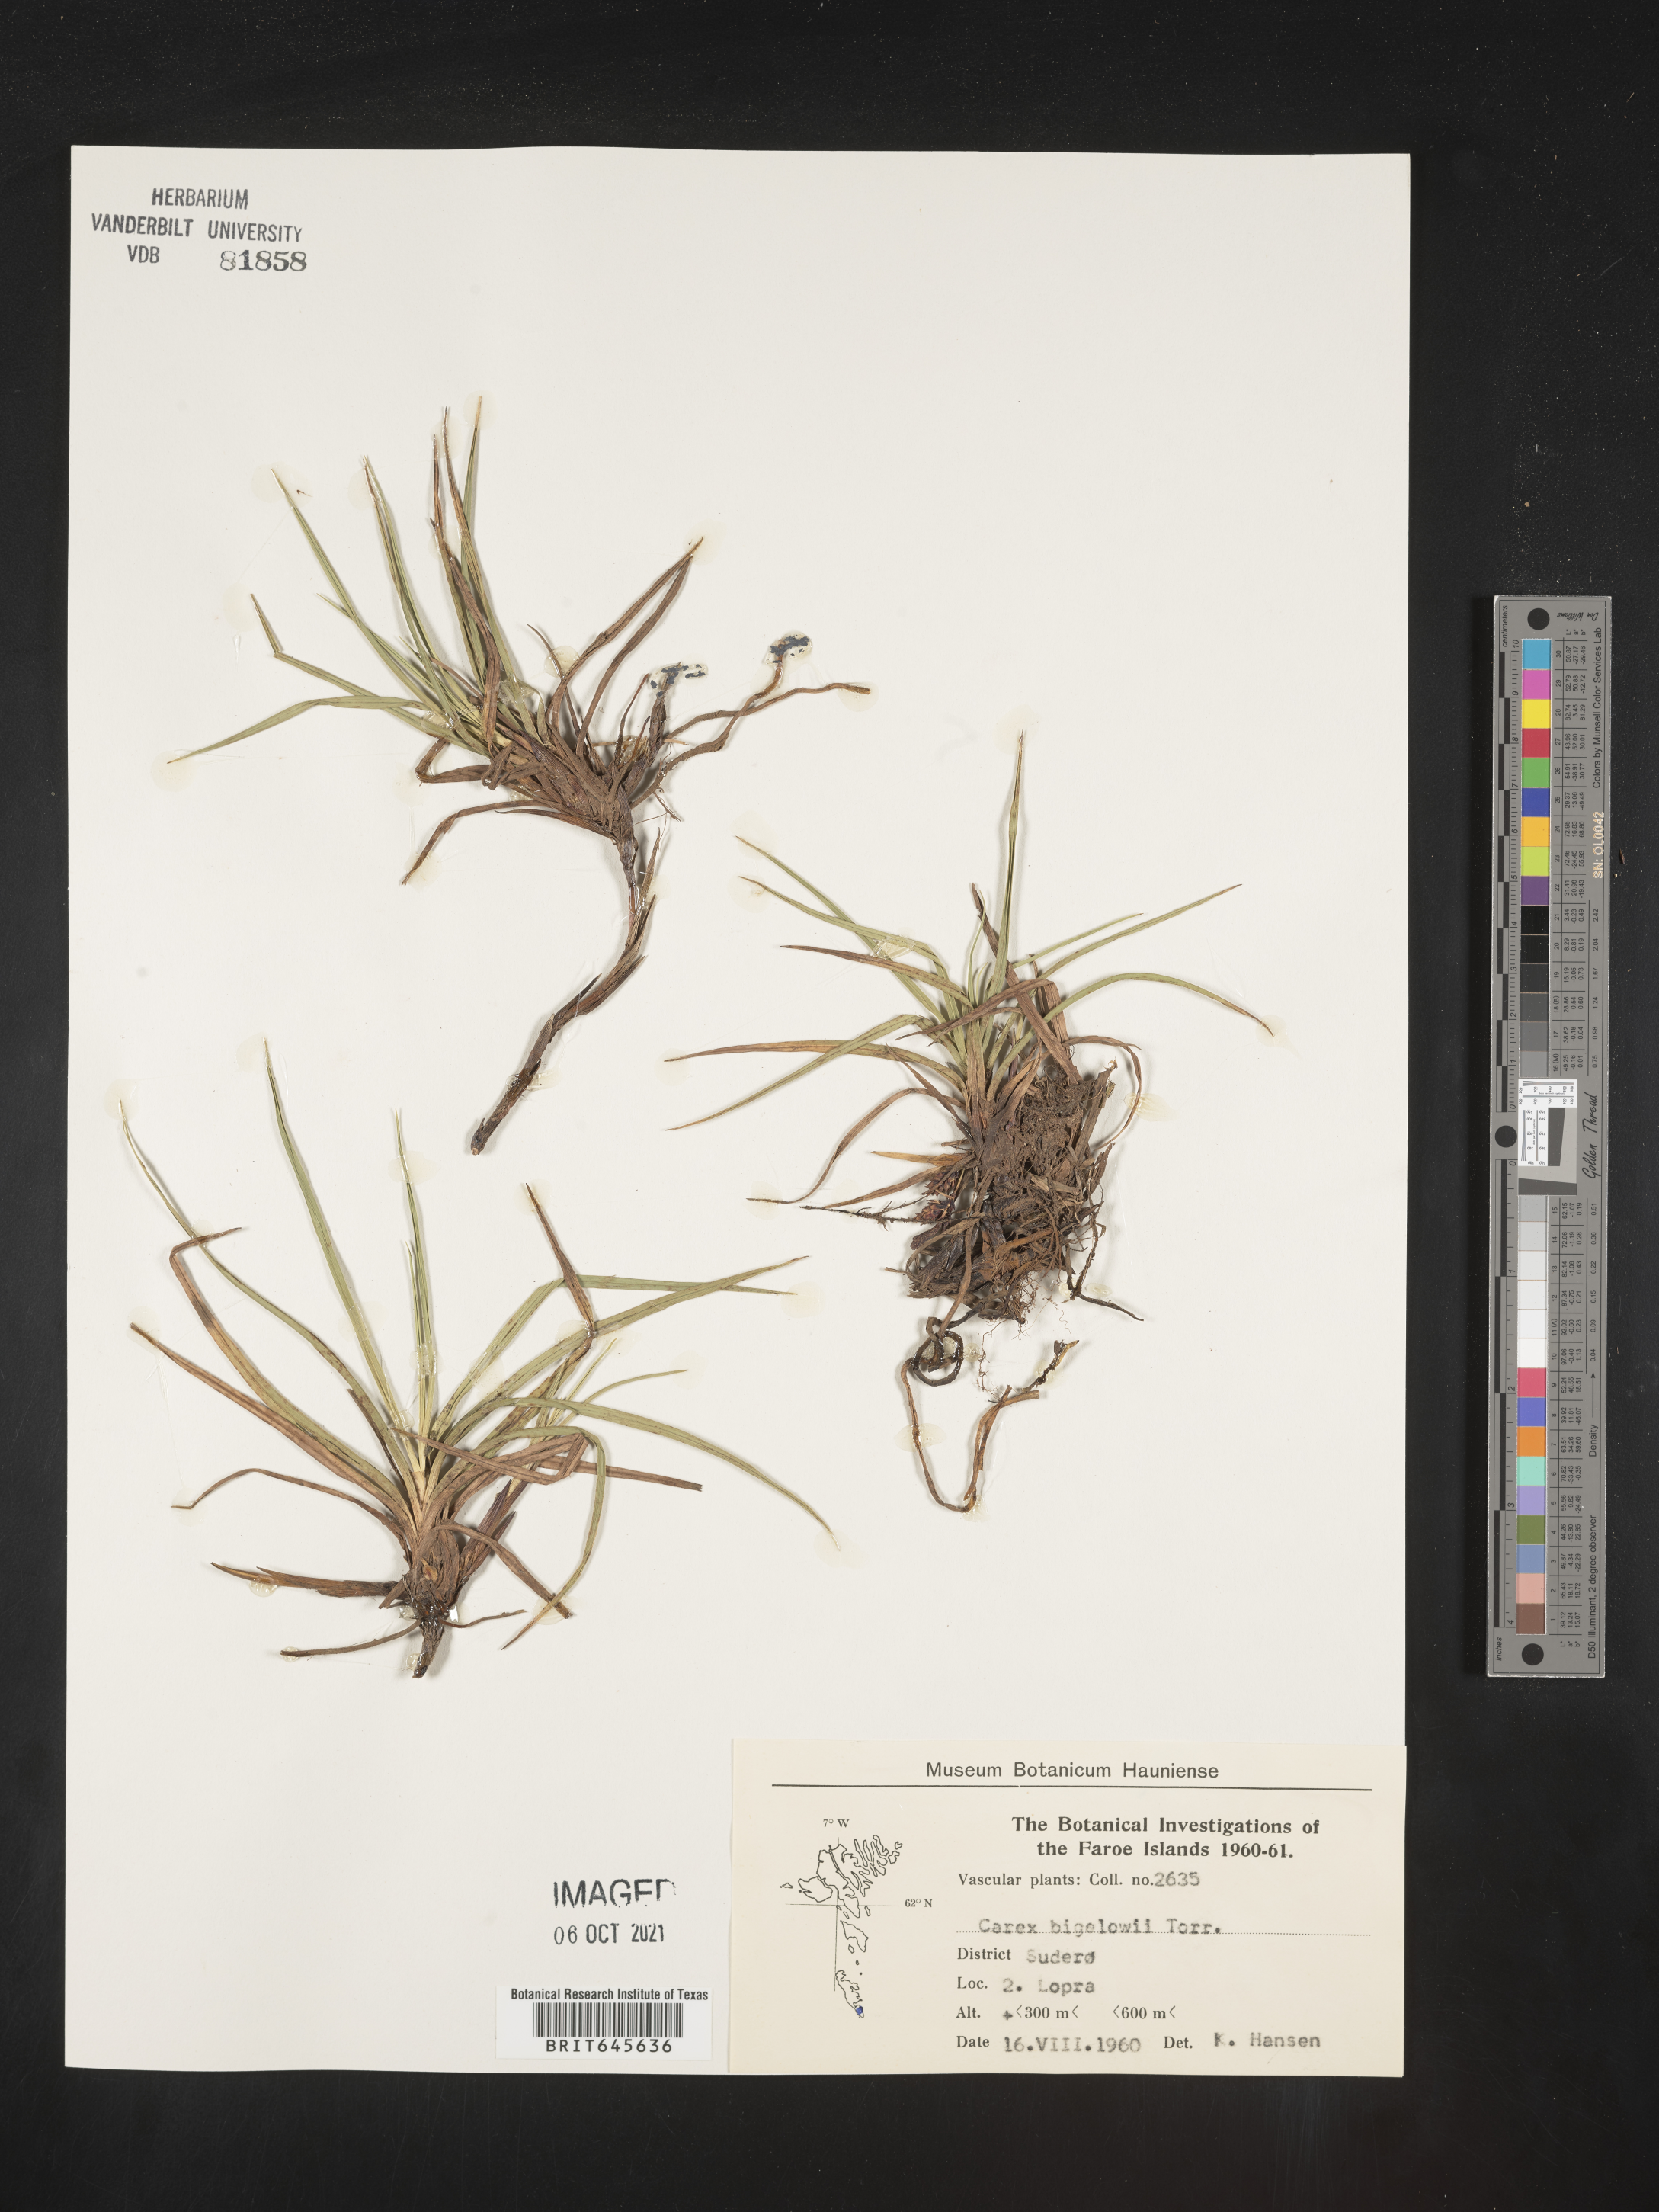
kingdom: Plantae
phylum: Tracheophyta
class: Liliopsida
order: Poales
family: Cyperaceae
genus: Carex
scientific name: Carex bigelowii
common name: Stiff sedge
